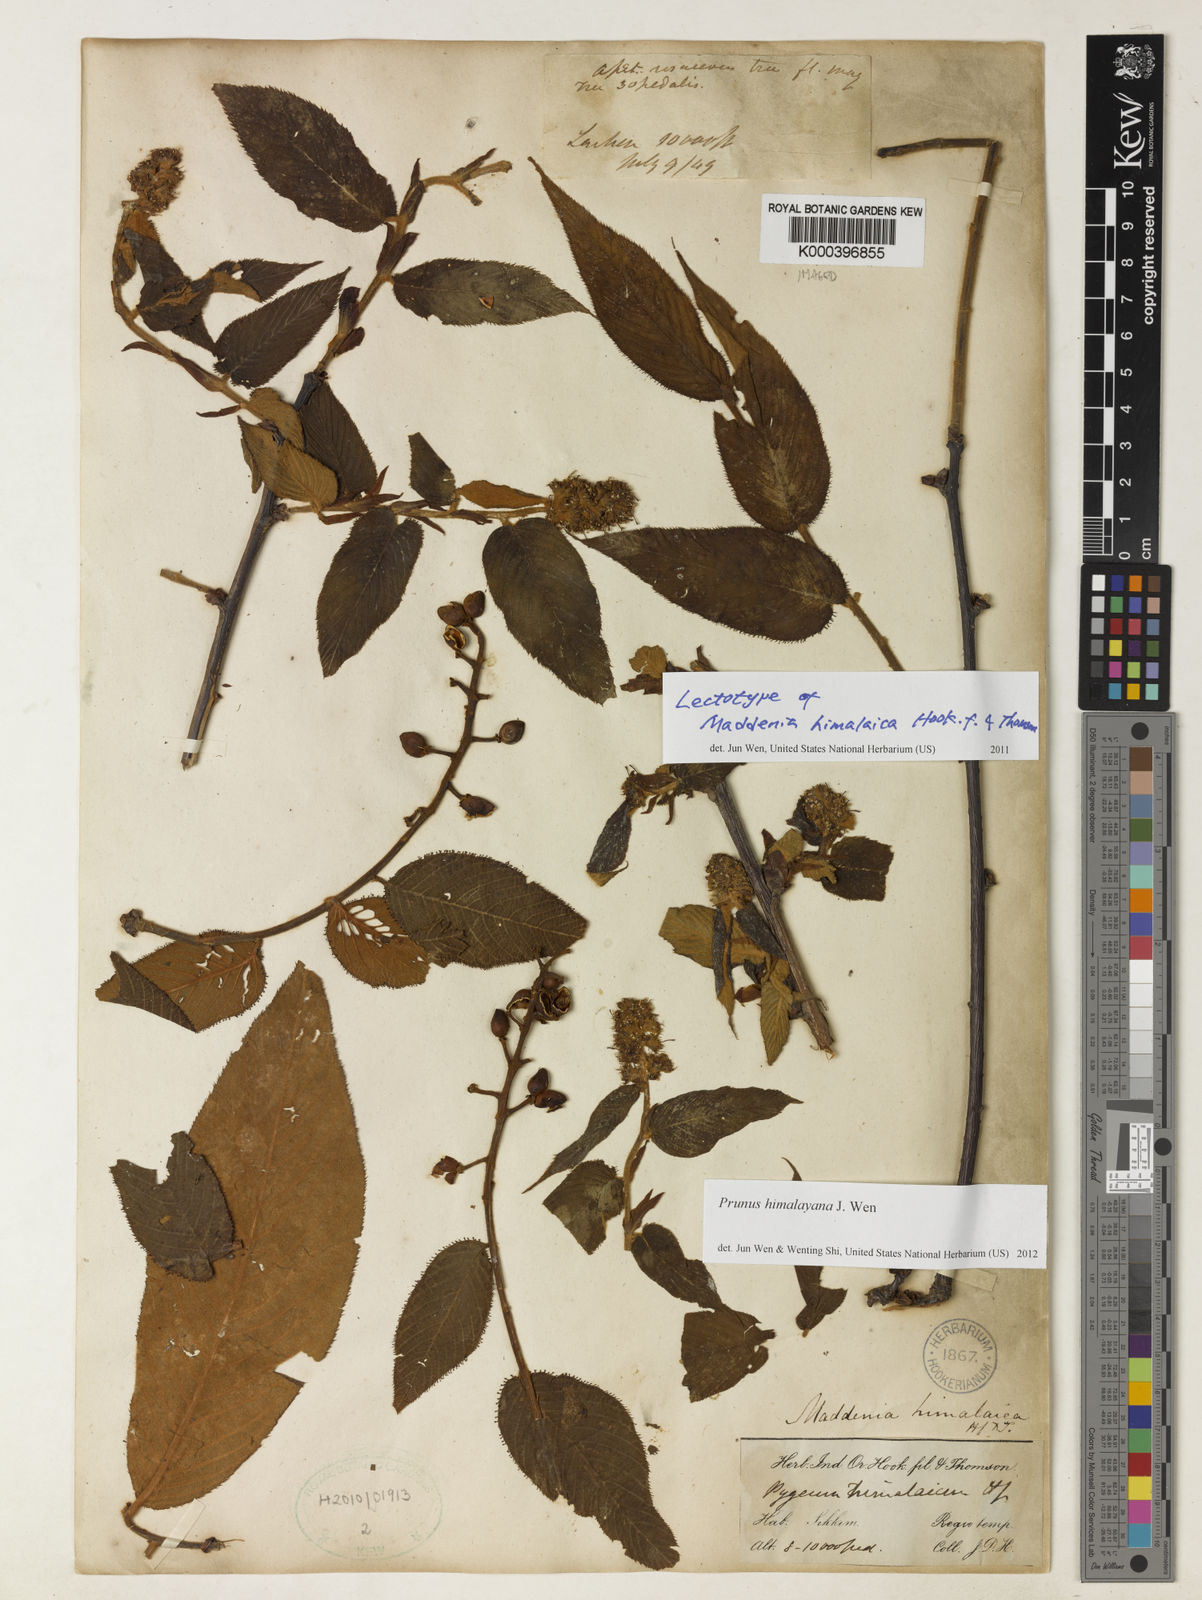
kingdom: Plantae
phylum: Tracheophyta
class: Magnoliopsida
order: Rosales
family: Rosaceae
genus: Prunus
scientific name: Prunus himalayana
